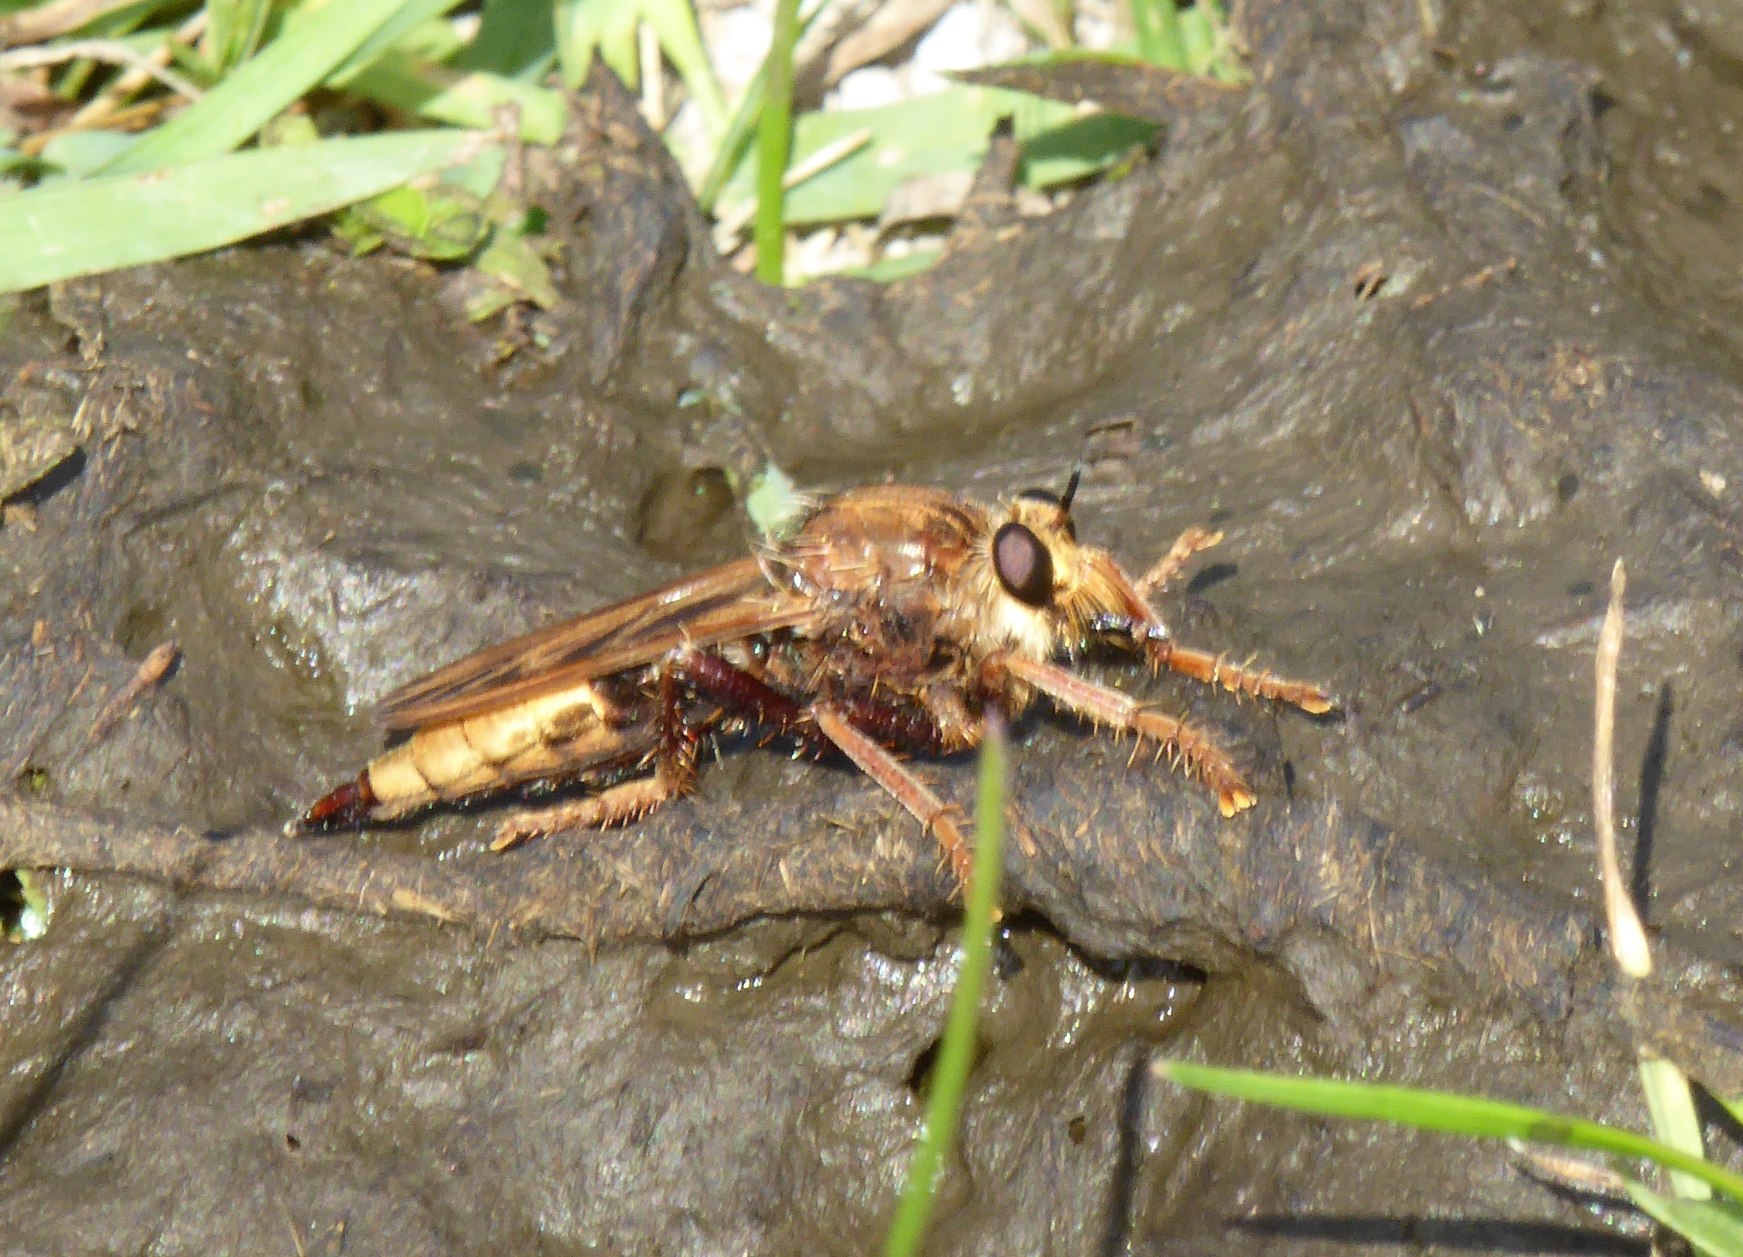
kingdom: Animalia
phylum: Arthropoda
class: Insecta
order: Diptera
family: Asilidae
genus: Asilus
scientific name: Asilus crabroniformis
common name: Stor gødningsrovflue
